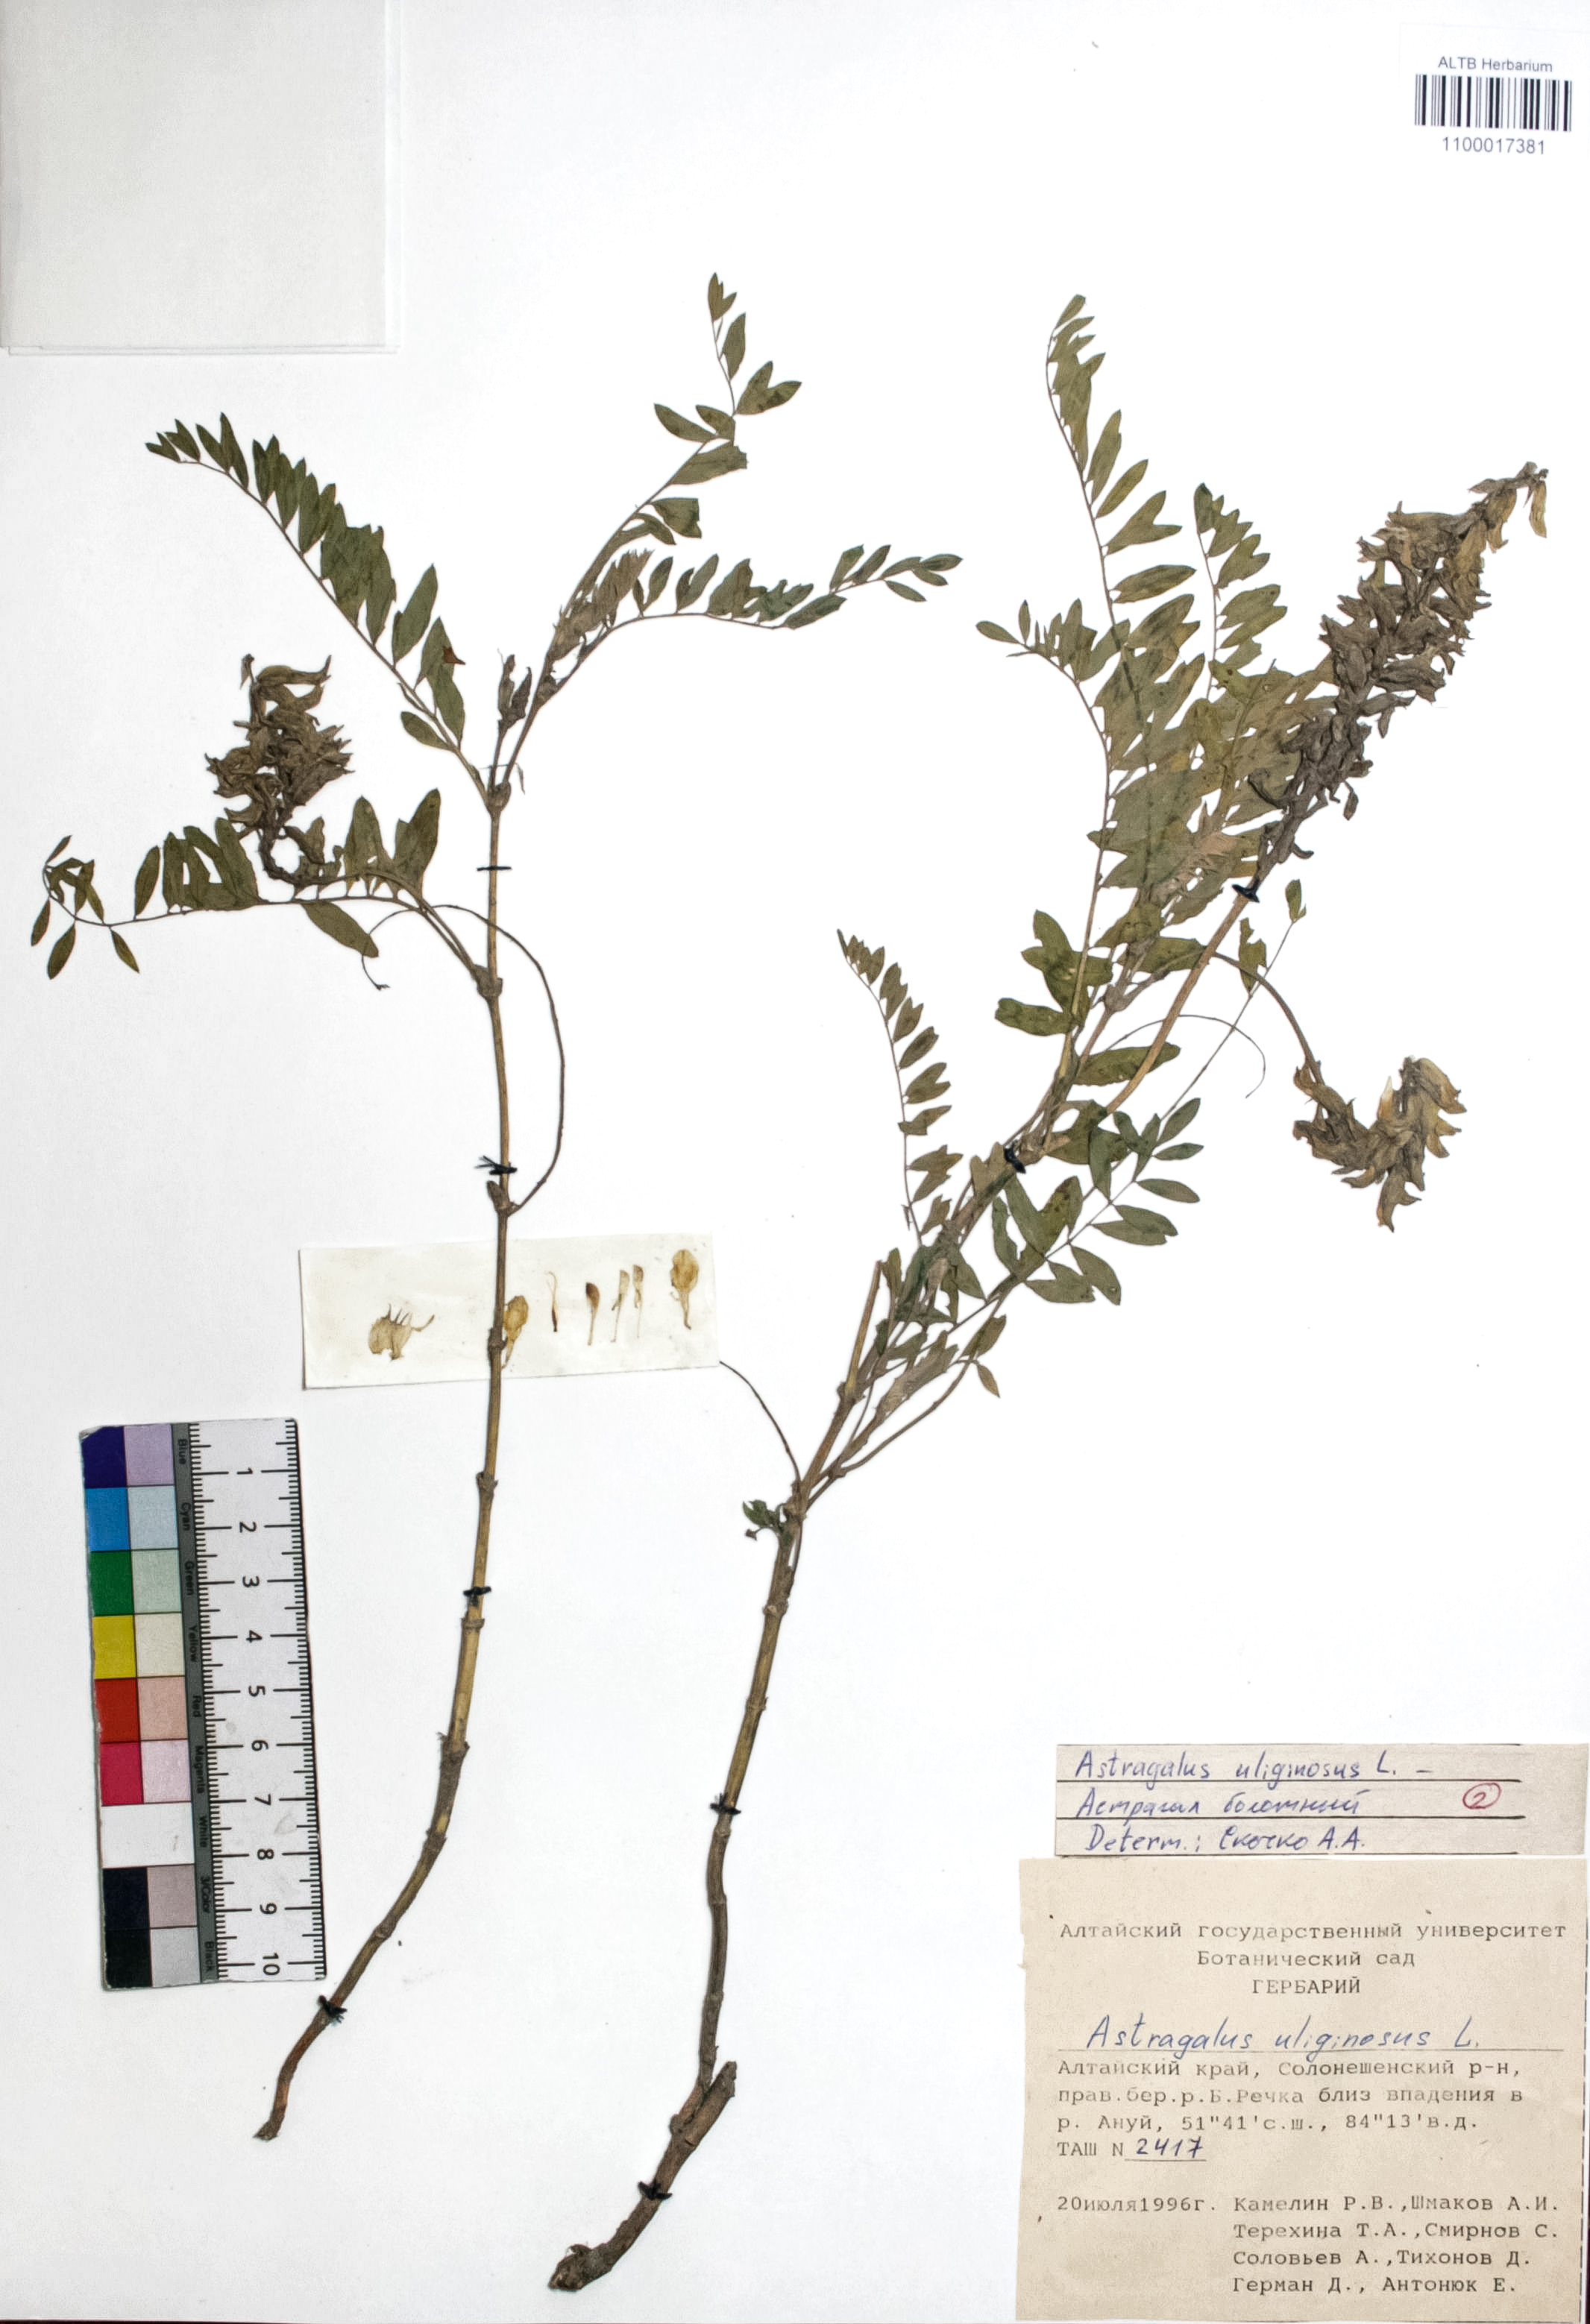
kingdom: Plantae
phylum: Tracheophyta
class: Magnoliopsida
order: Fabales
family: Fabaceae
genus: Astragalus
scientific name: Astragalus uliginosus
